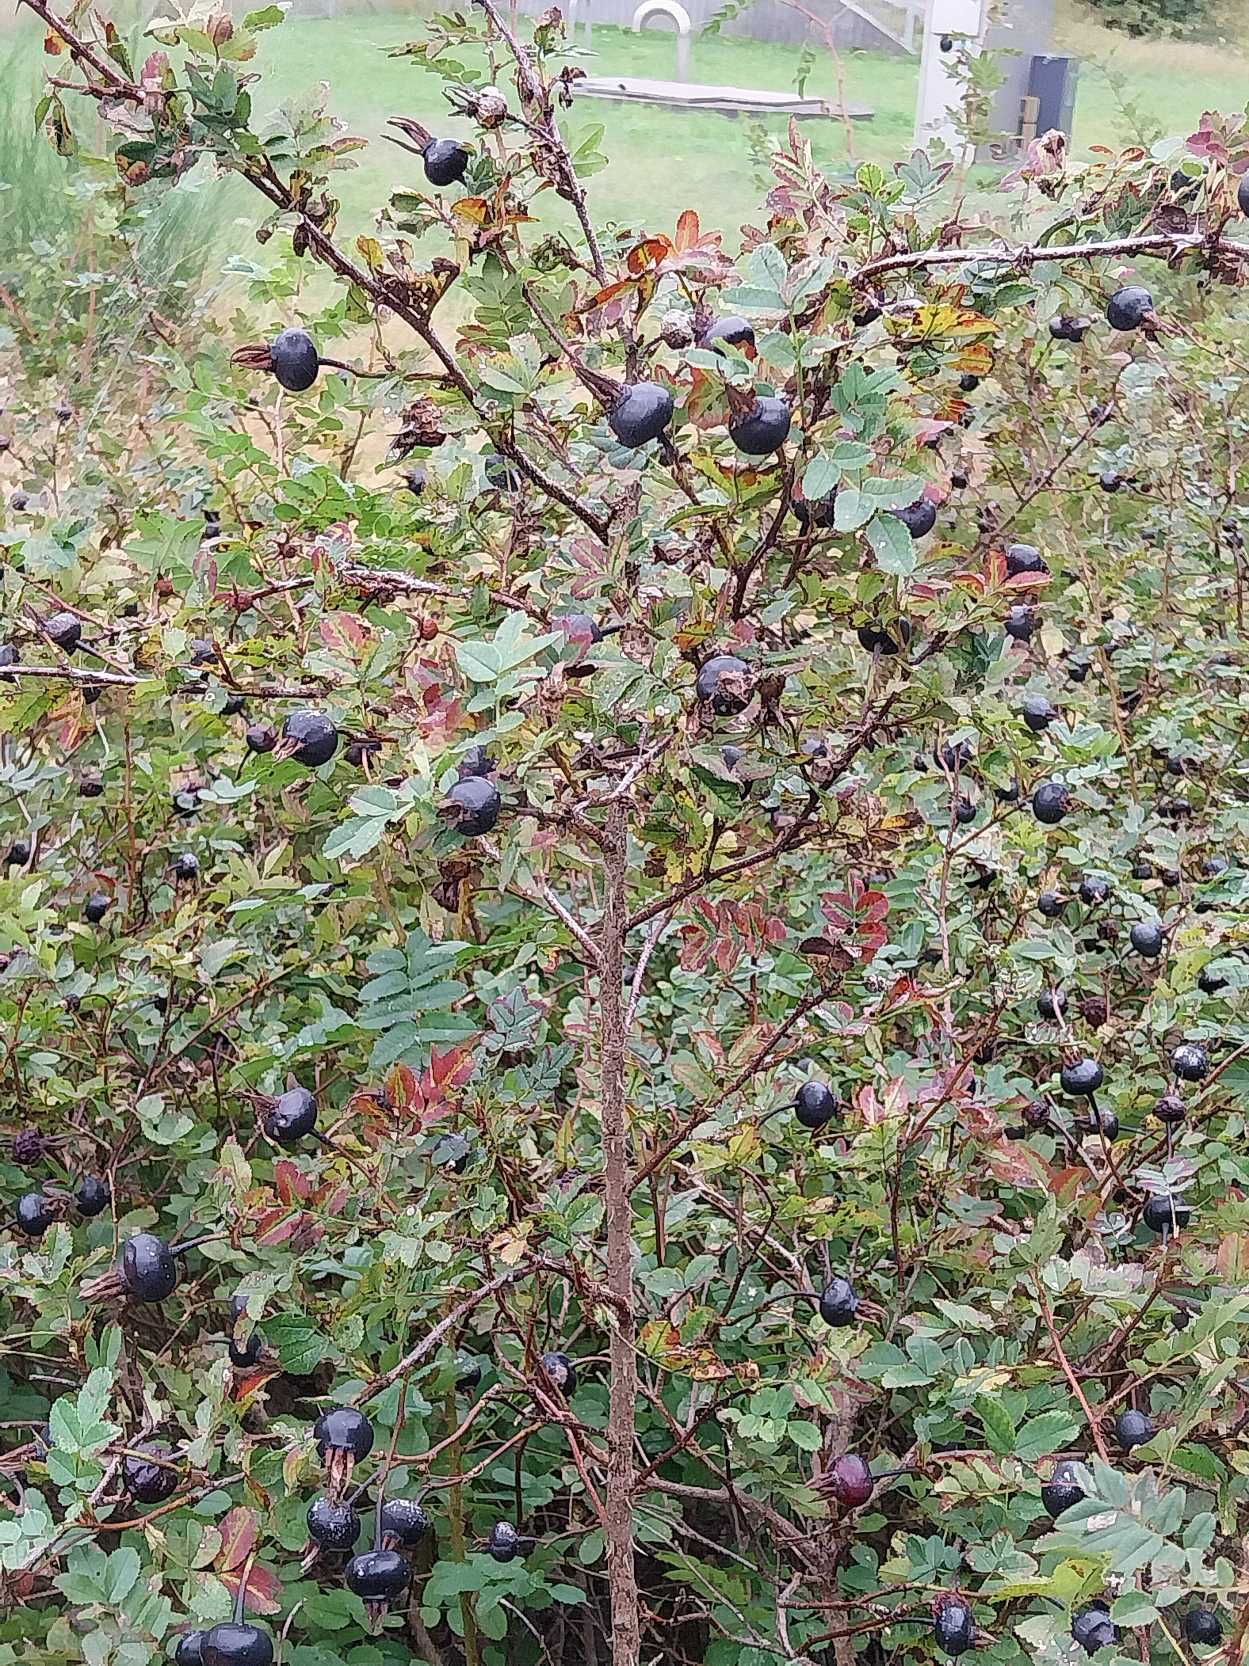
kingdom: Plantae
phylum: Tracheophyta
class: Magnoliopsida
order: Rosales
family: Rosaceae
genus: Rosa
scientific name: Rosa spinosissima
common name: Klit-rose
